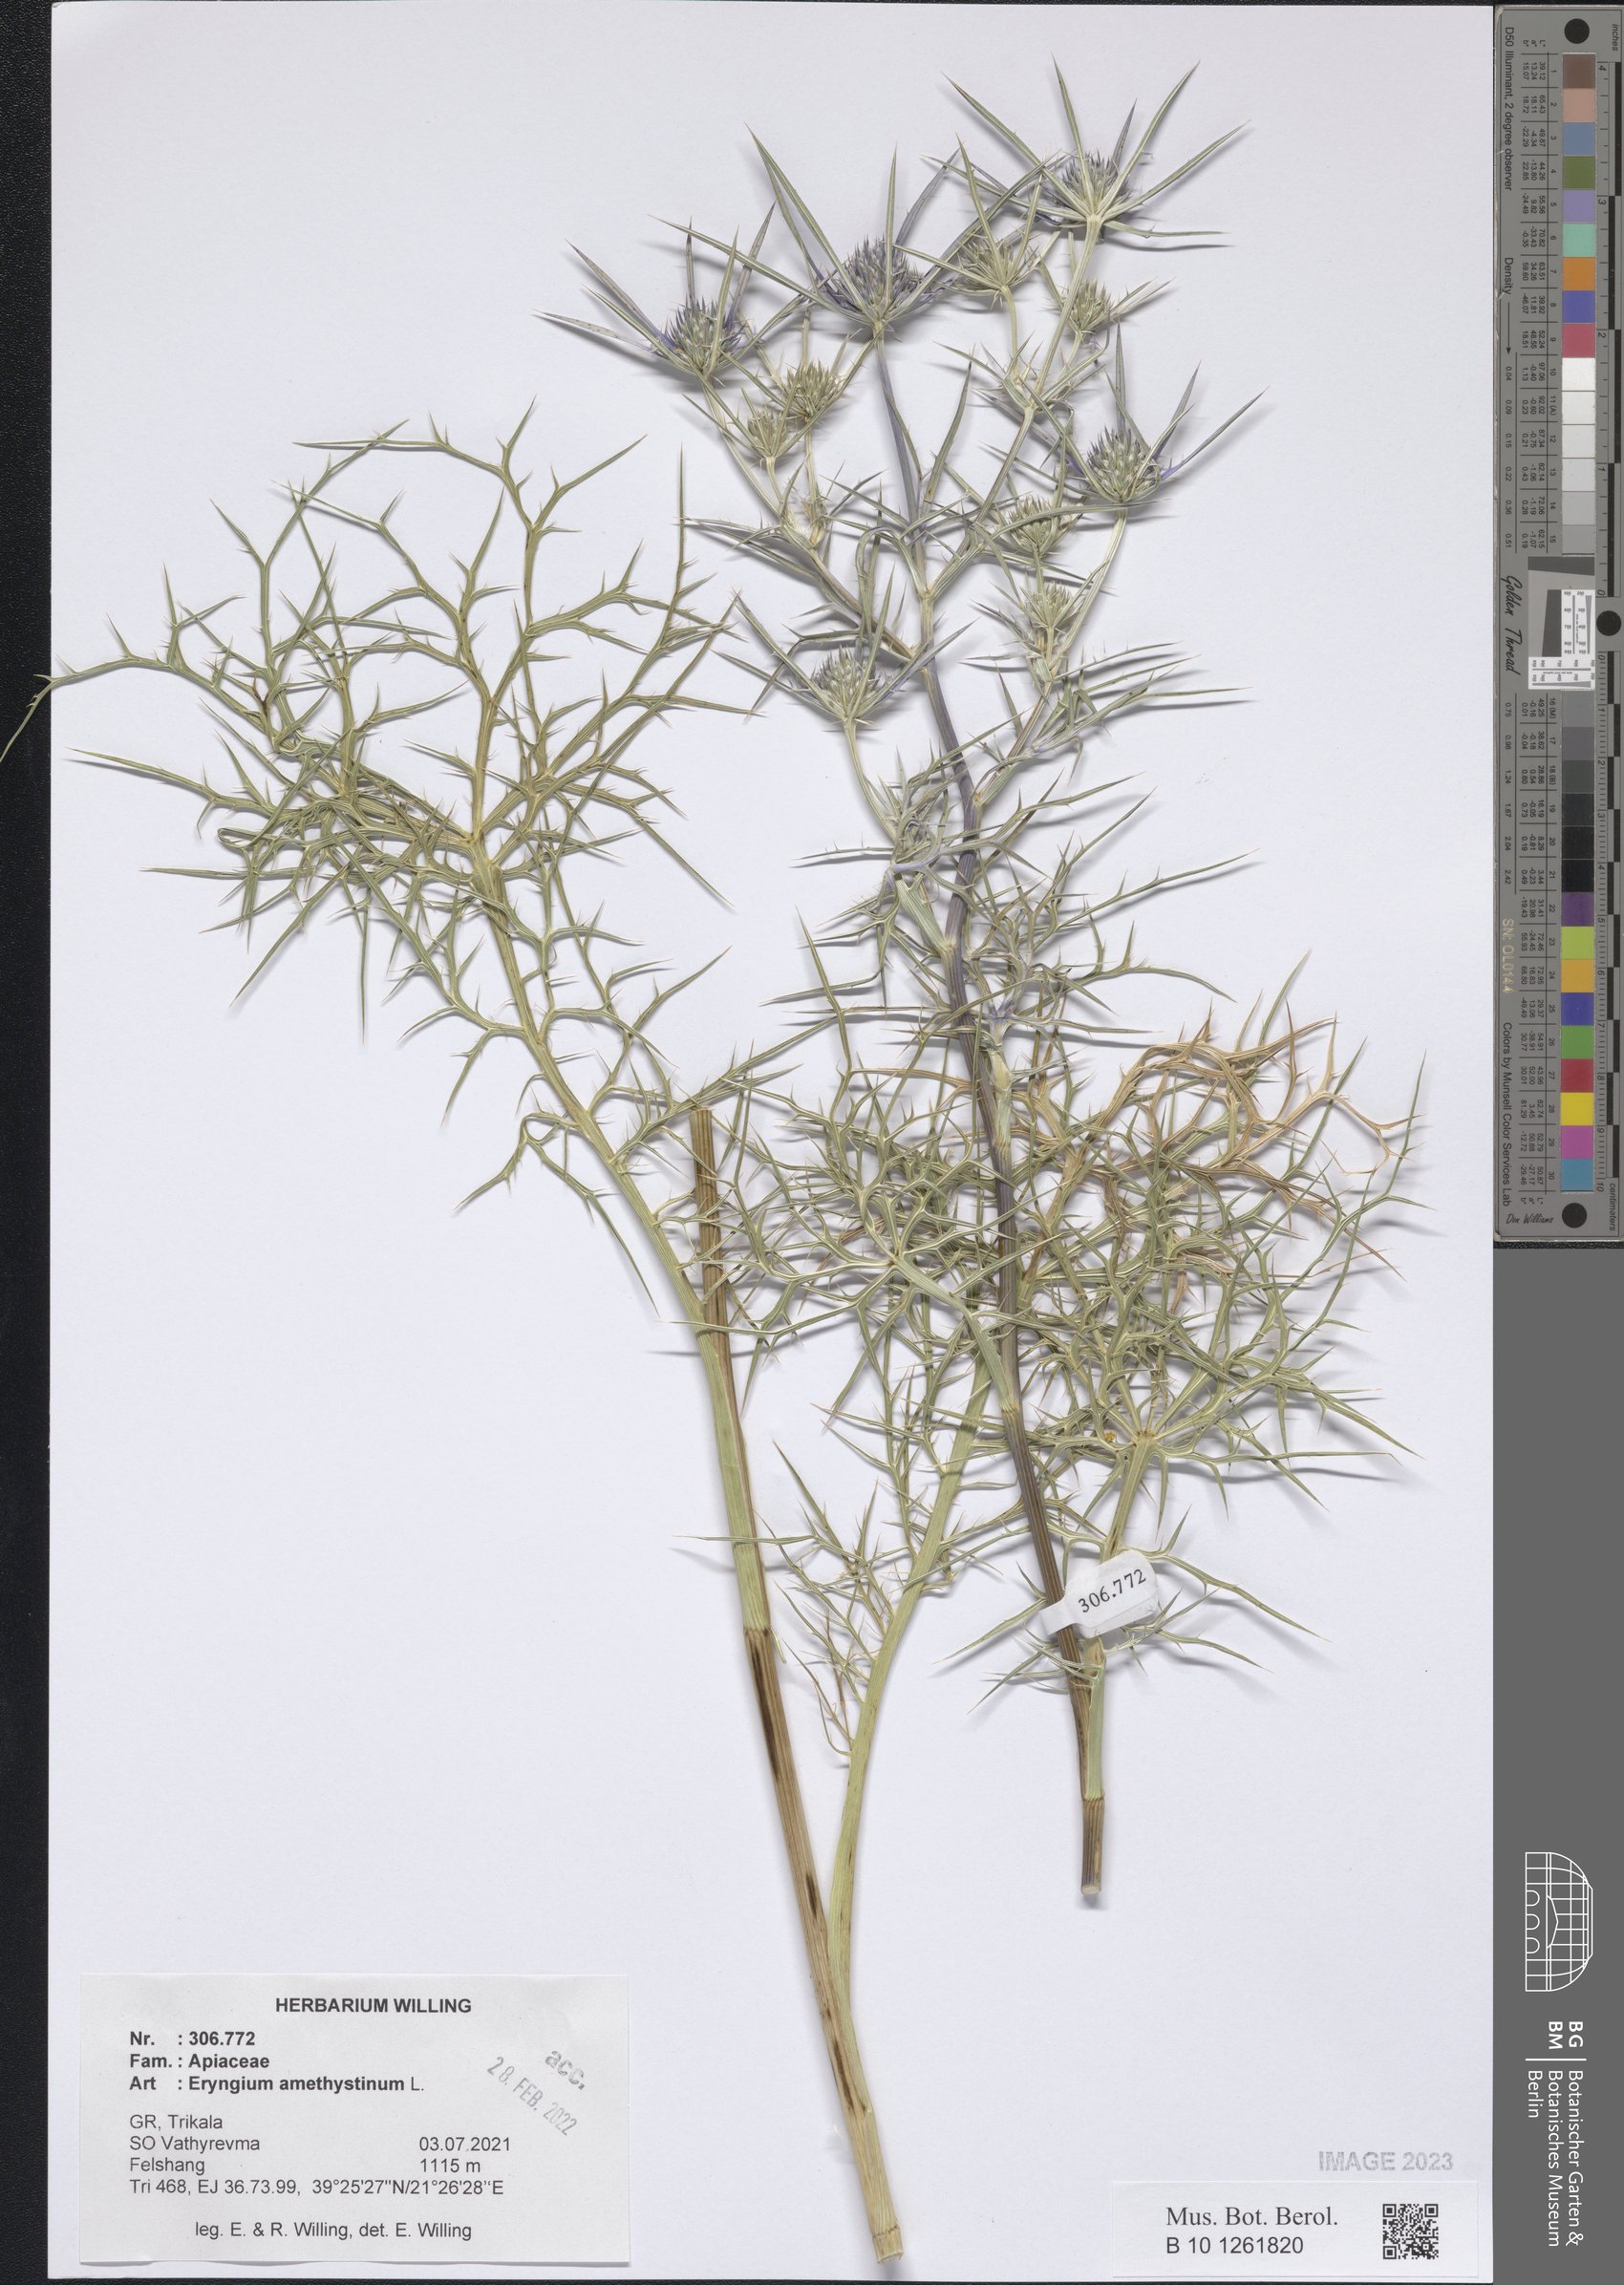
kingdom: Plantae
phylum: Tracheophyta
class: Magnoliopsida
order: Apiales
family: Apiaceae
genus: Eryngium
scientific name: Eryngium amethystinum
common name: Amethyst eryngo
